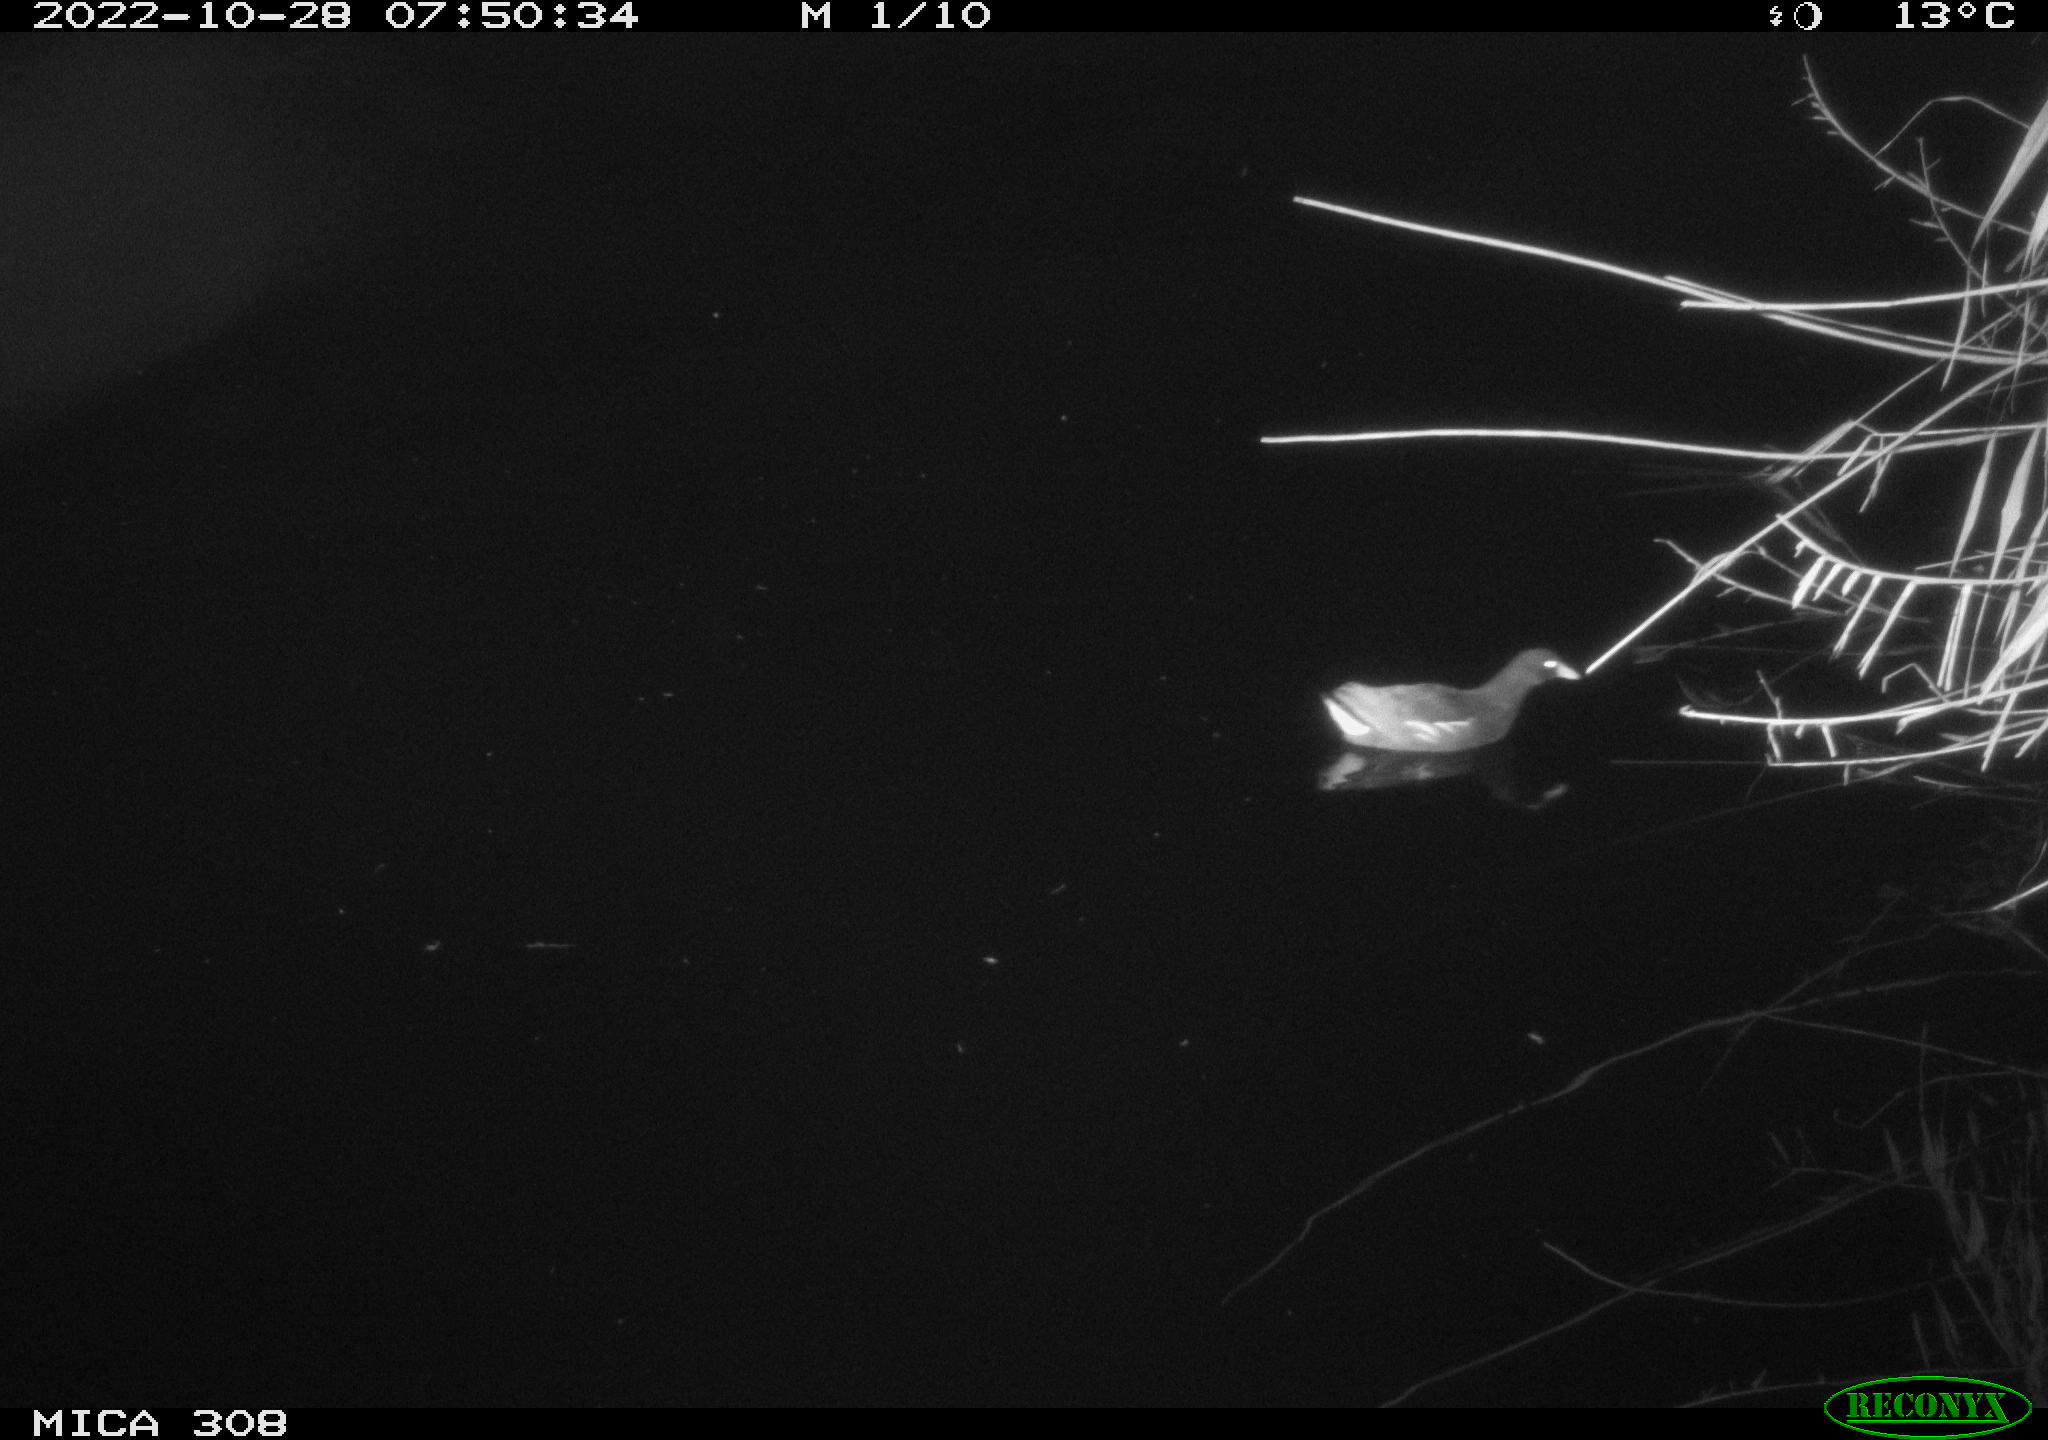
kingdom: Animalia
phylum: Chordata
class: Aves
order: Gruiformes
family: Rallidae
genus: Gallinula
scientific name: Gallinula chloropus
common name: Common moorhen
